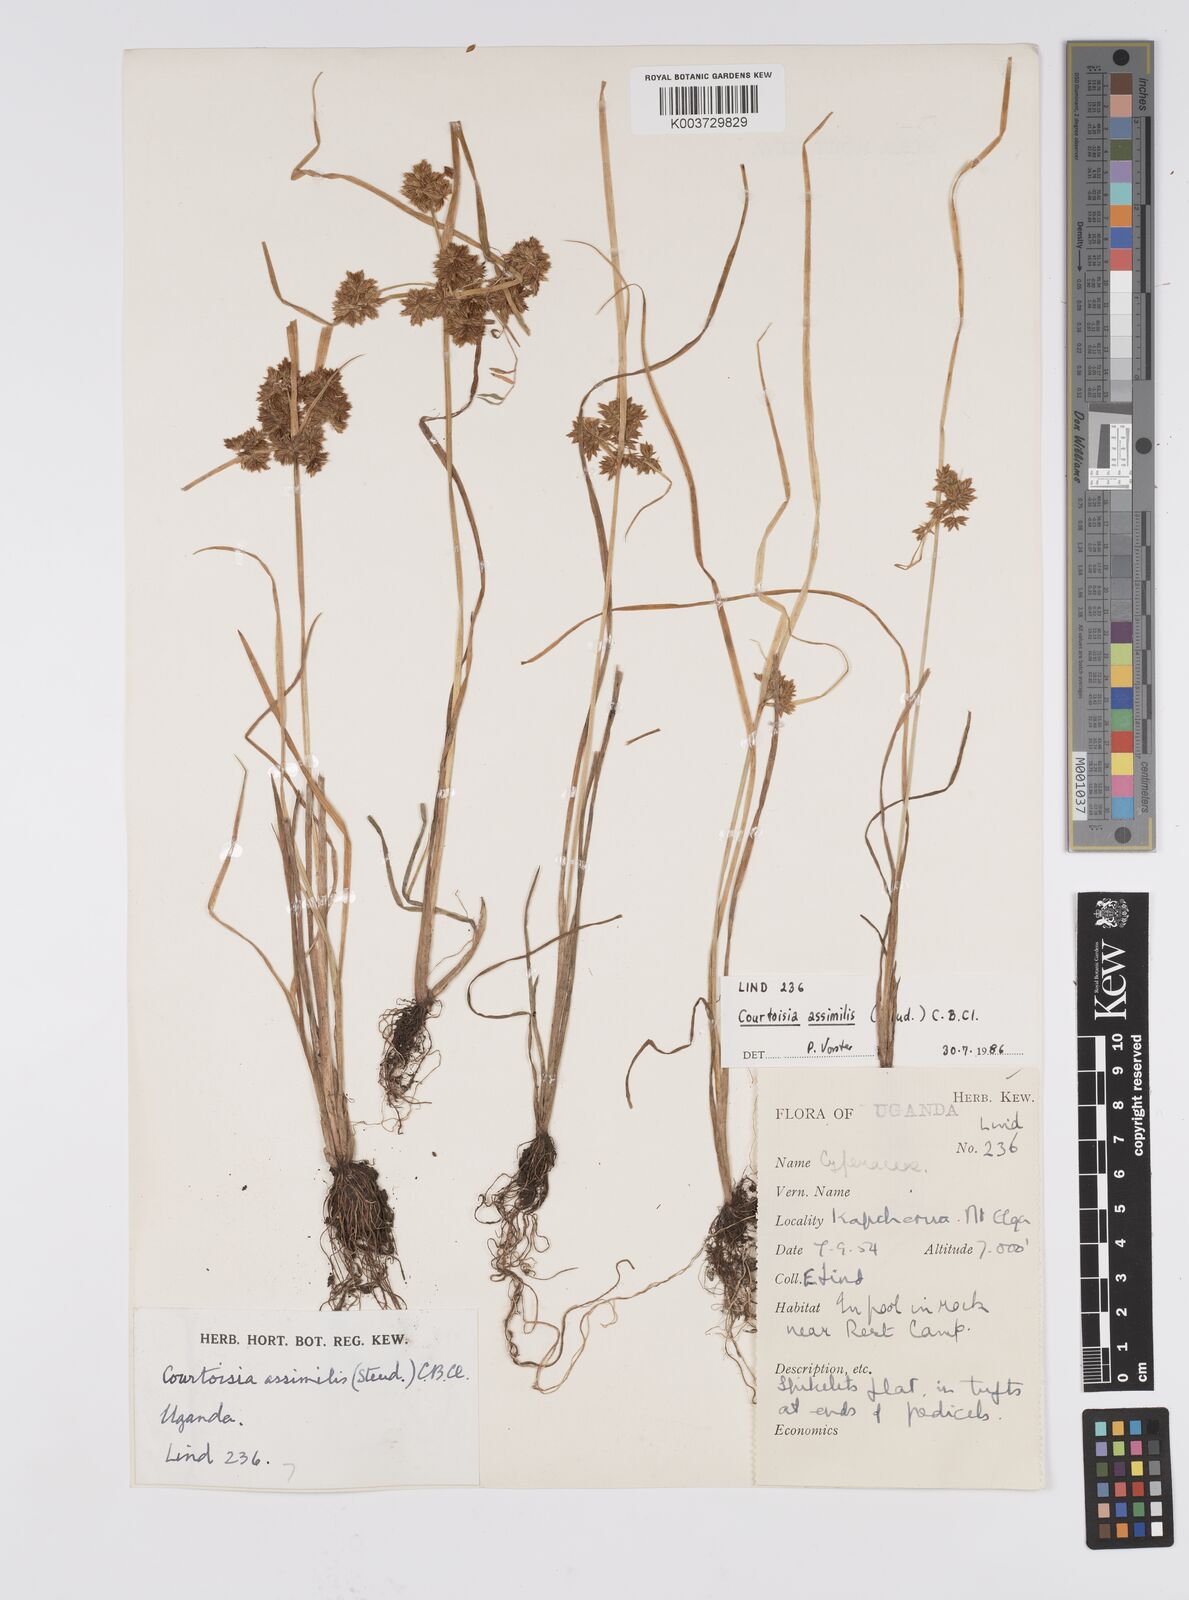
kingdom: Plantae
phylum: Tracheophyta
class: Liliopsida
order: Poales
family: Cyperaceae
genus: Cyperus
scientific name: Cyperus assimilis
